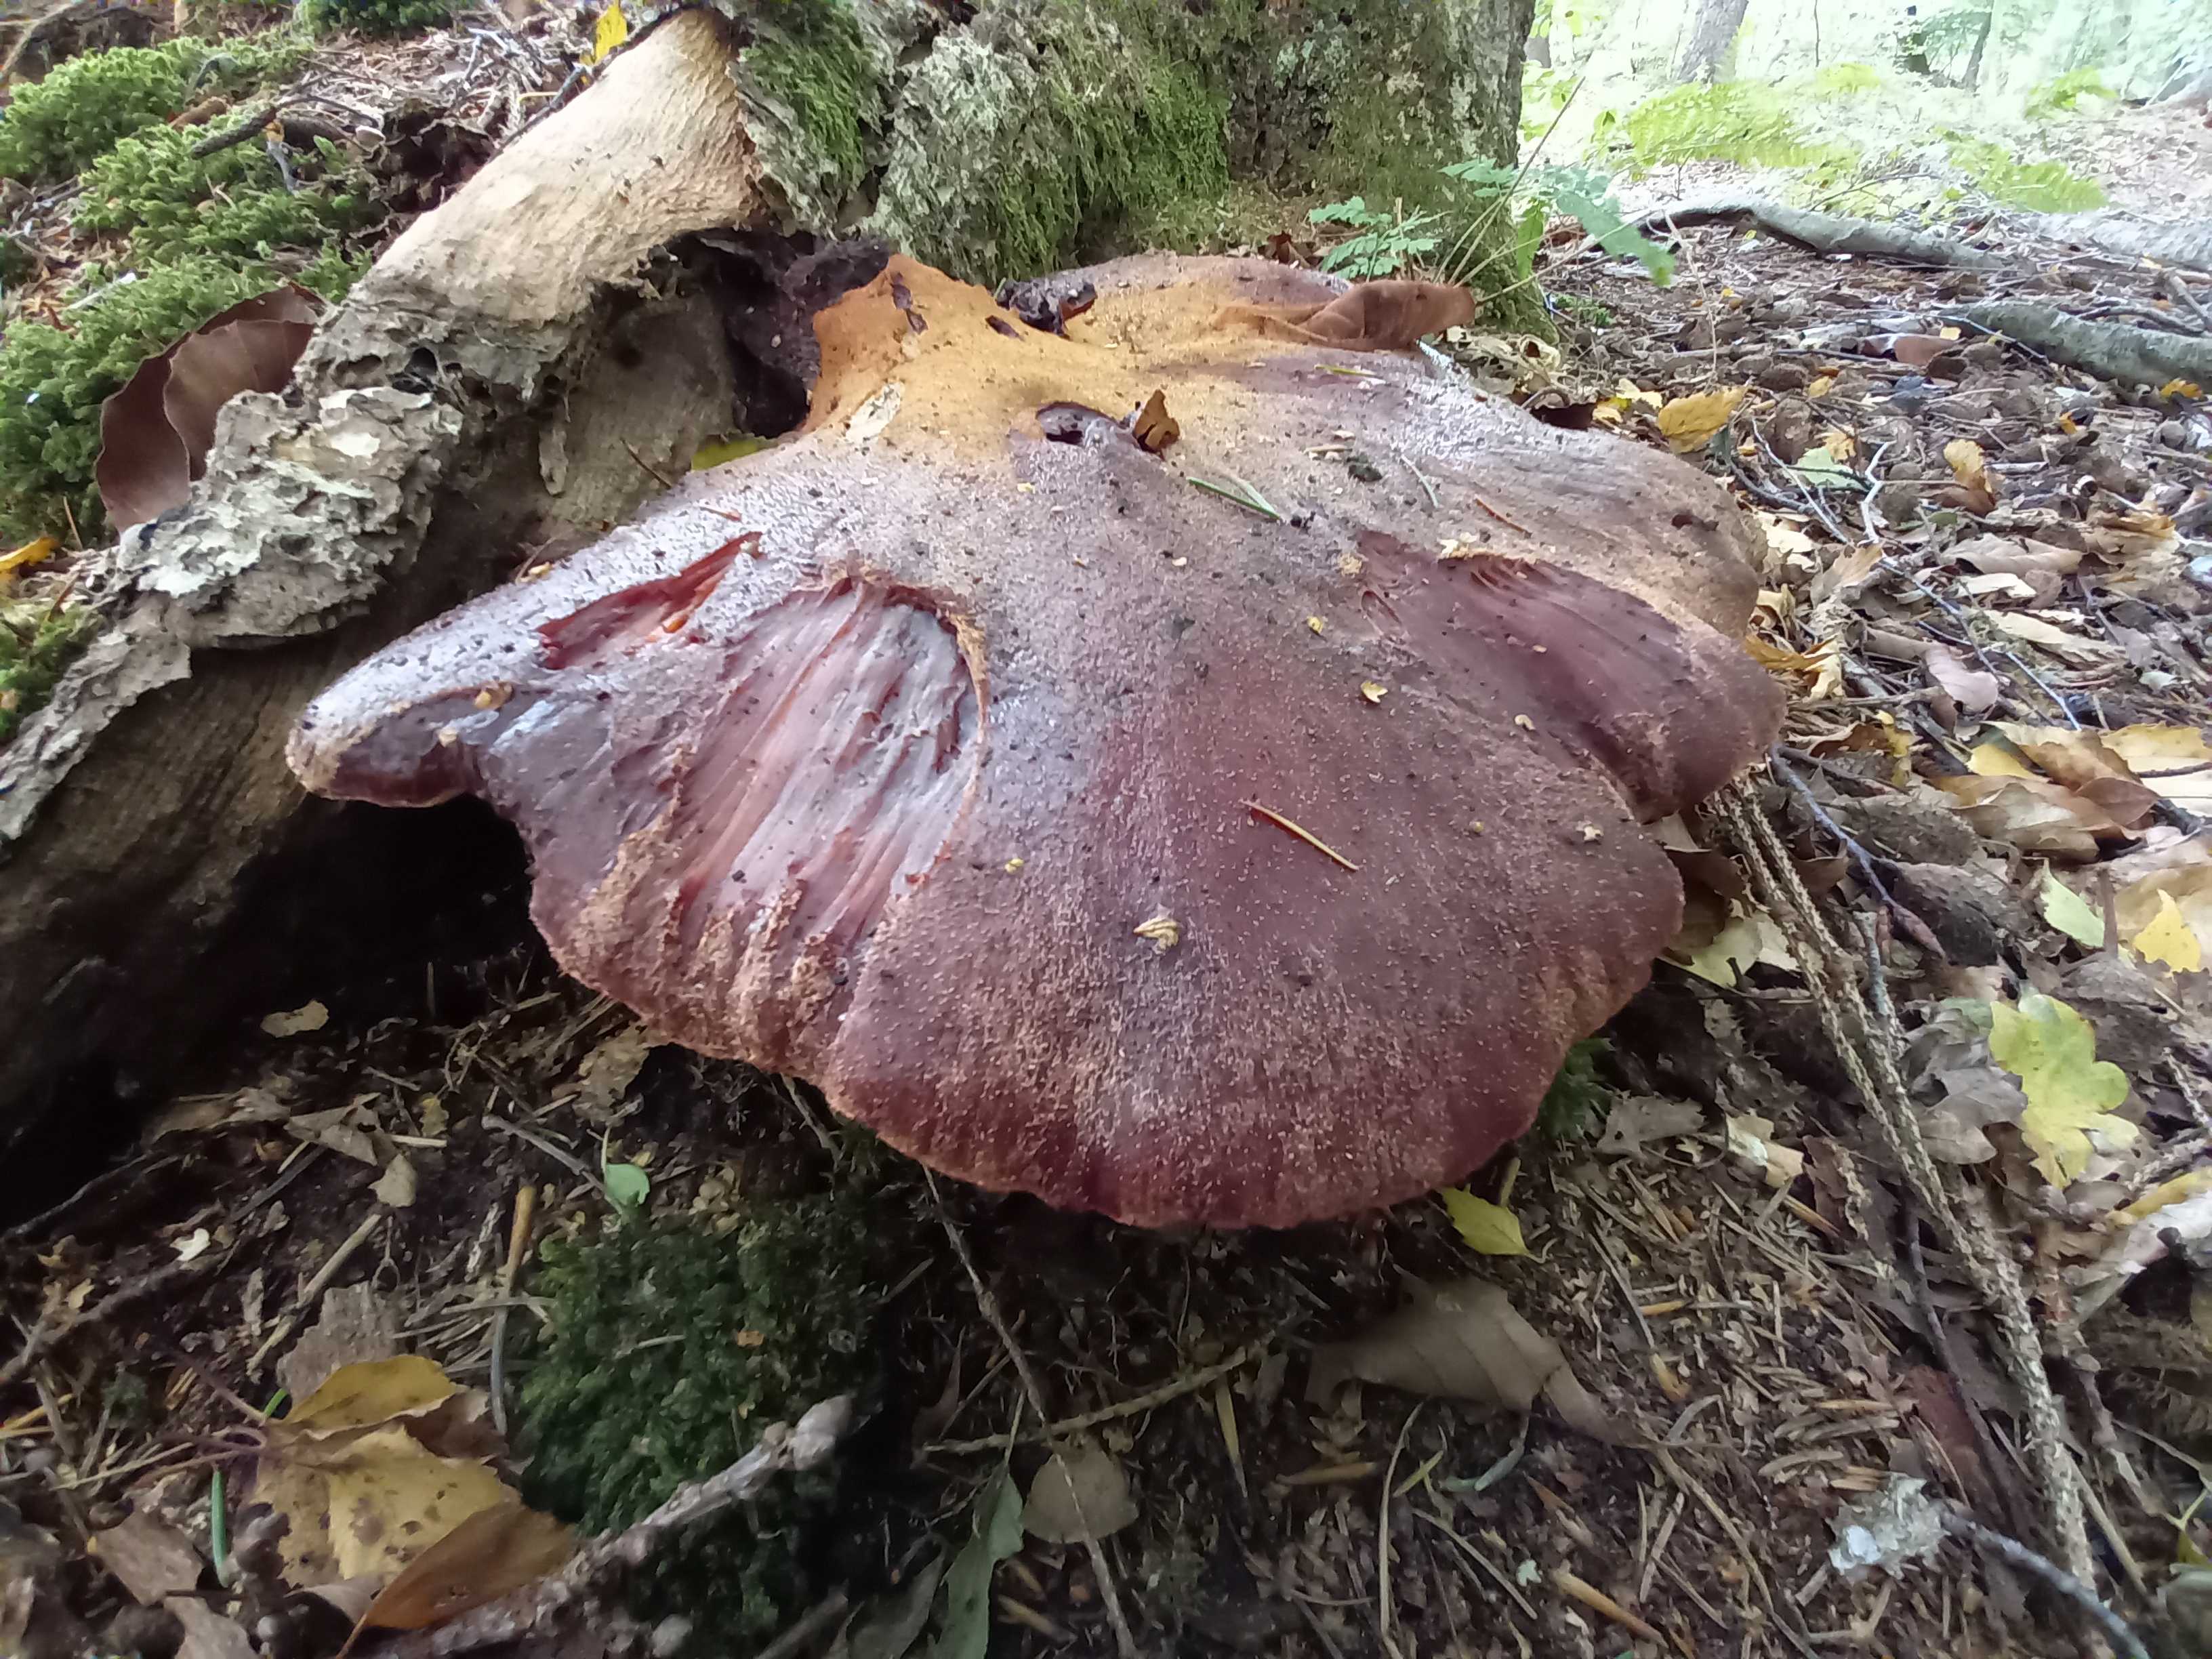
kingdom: Fungi
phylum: Basidiomycota
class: Agaricomycetes
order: Agaricales
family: Fistulinaceae
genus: Fistulina
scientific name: Fistulina hepatica
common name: oksetunge
